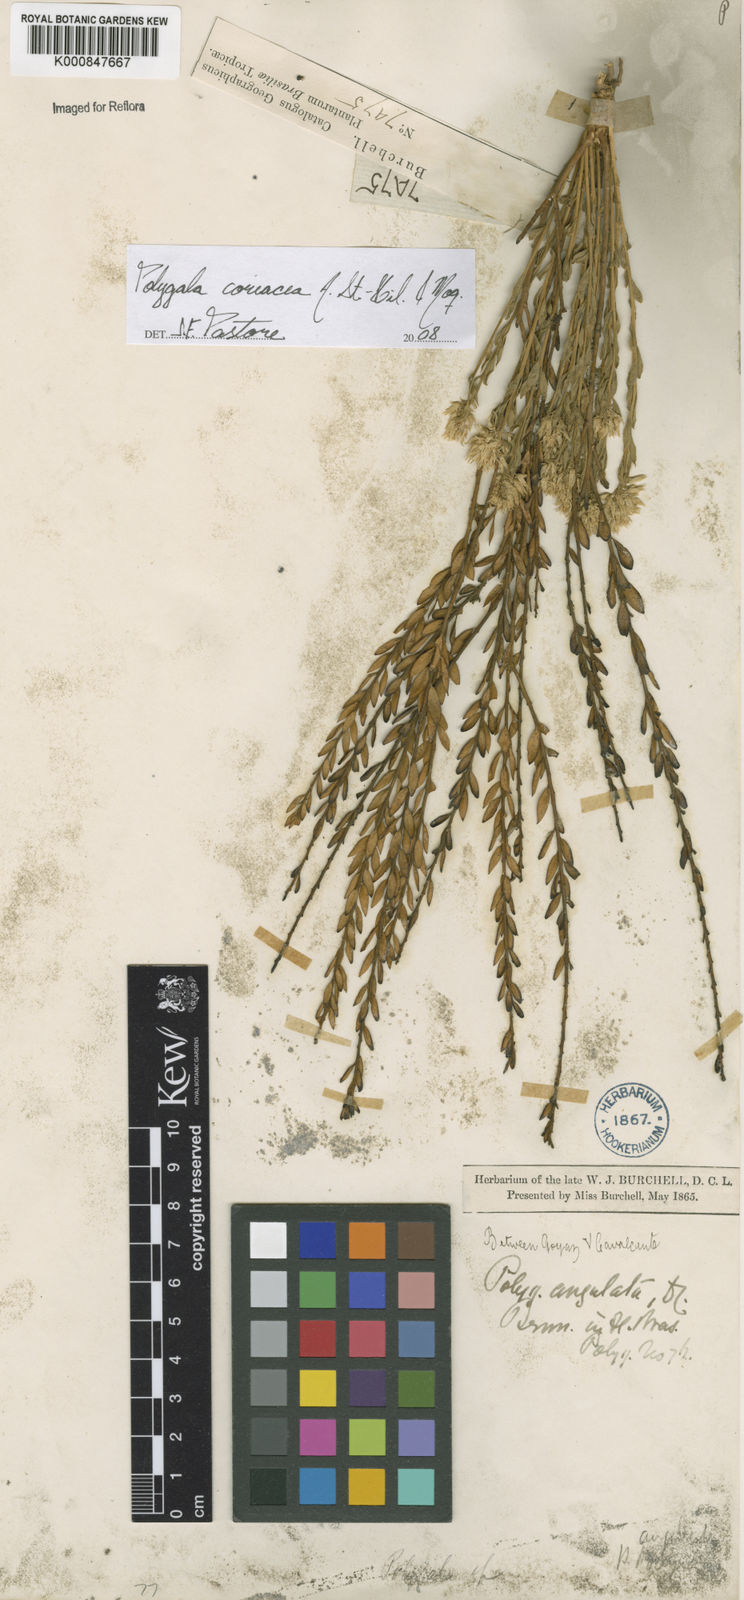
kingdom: Plantae
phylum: Tracheophyta
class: Magnoliopsida
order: Fabales
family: Polygalaceae
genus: Polygala
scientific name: Polygala coriacea
